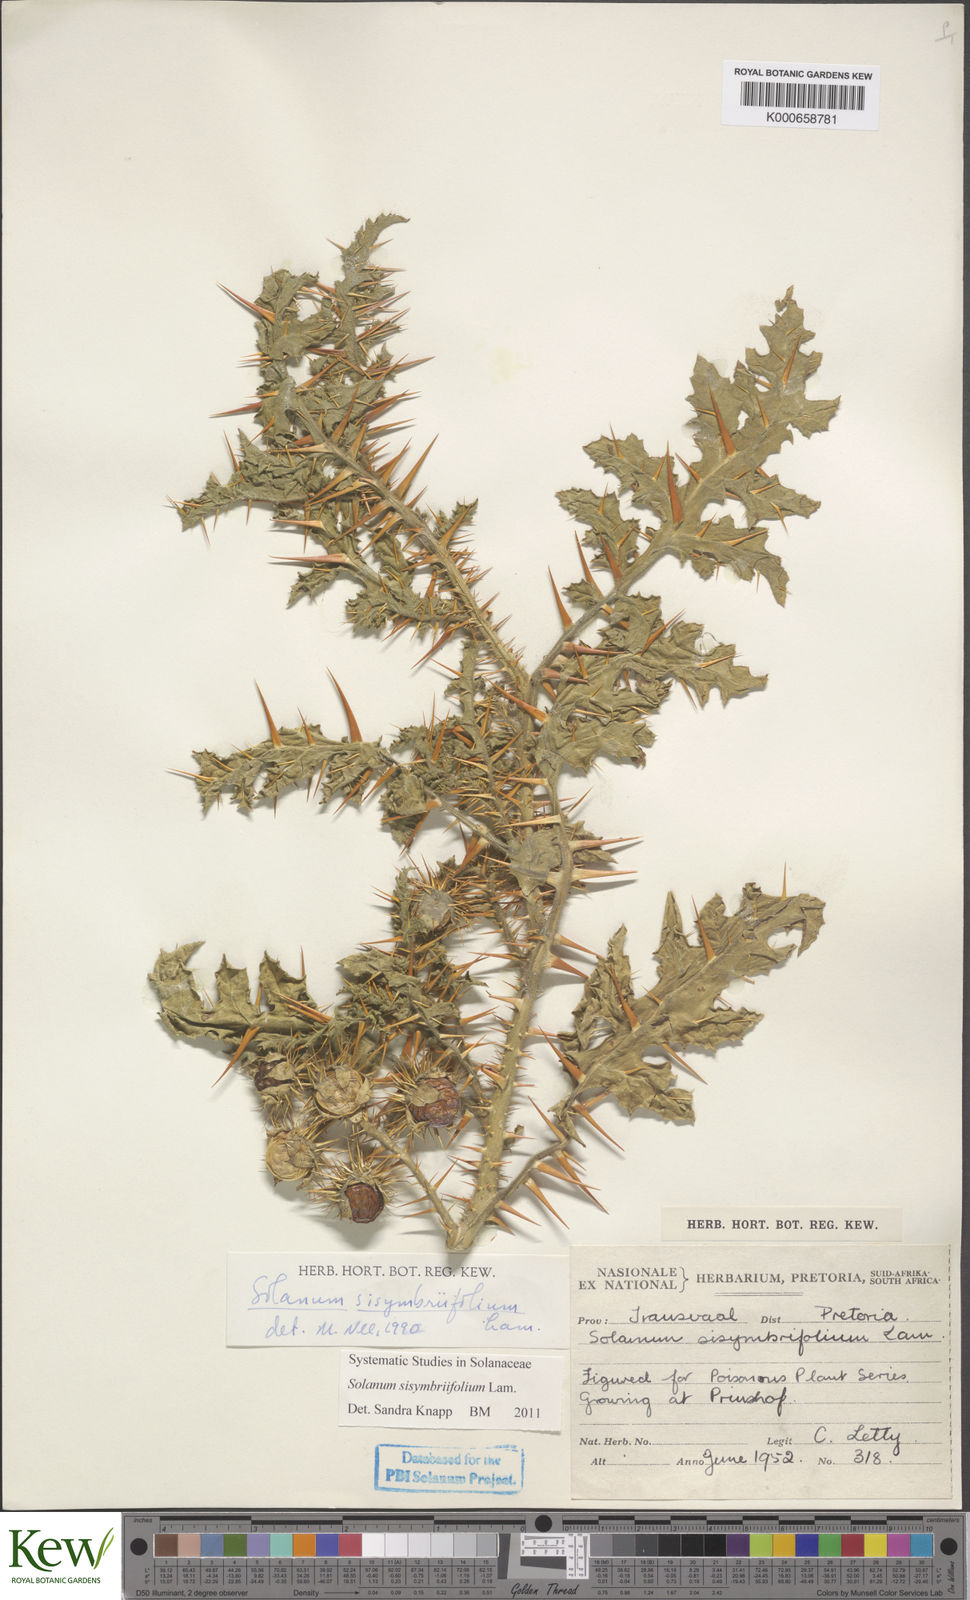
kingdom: Plantae
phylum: Tracheophyta
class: Magnoliopsida
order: Solanales
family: Solanaceae
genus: Solanum
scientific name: Solanum sisymbriifolium
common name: Red buffalo-bur
